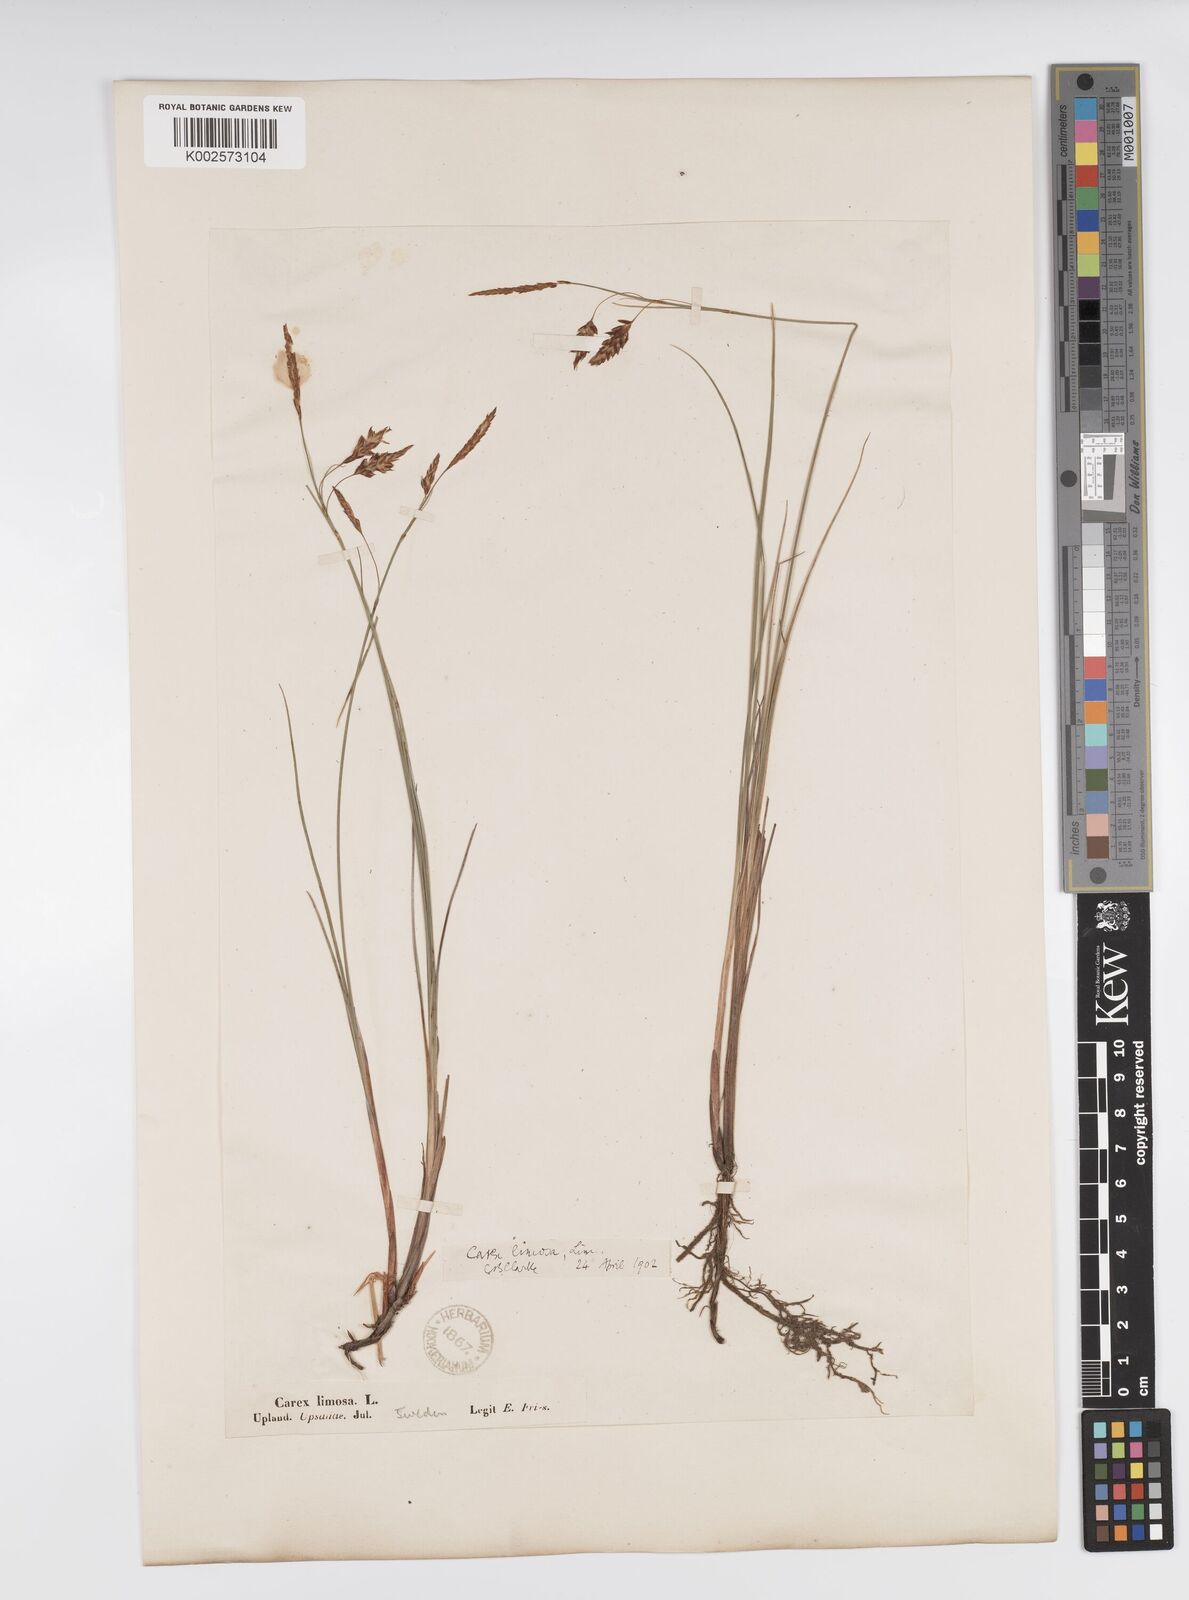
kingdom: Plantae
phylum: Tracheophyta
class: Liliopsida
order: Poales
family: Cyperaceae
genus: Carex
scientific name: Carex limosa
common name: Bog sedge
